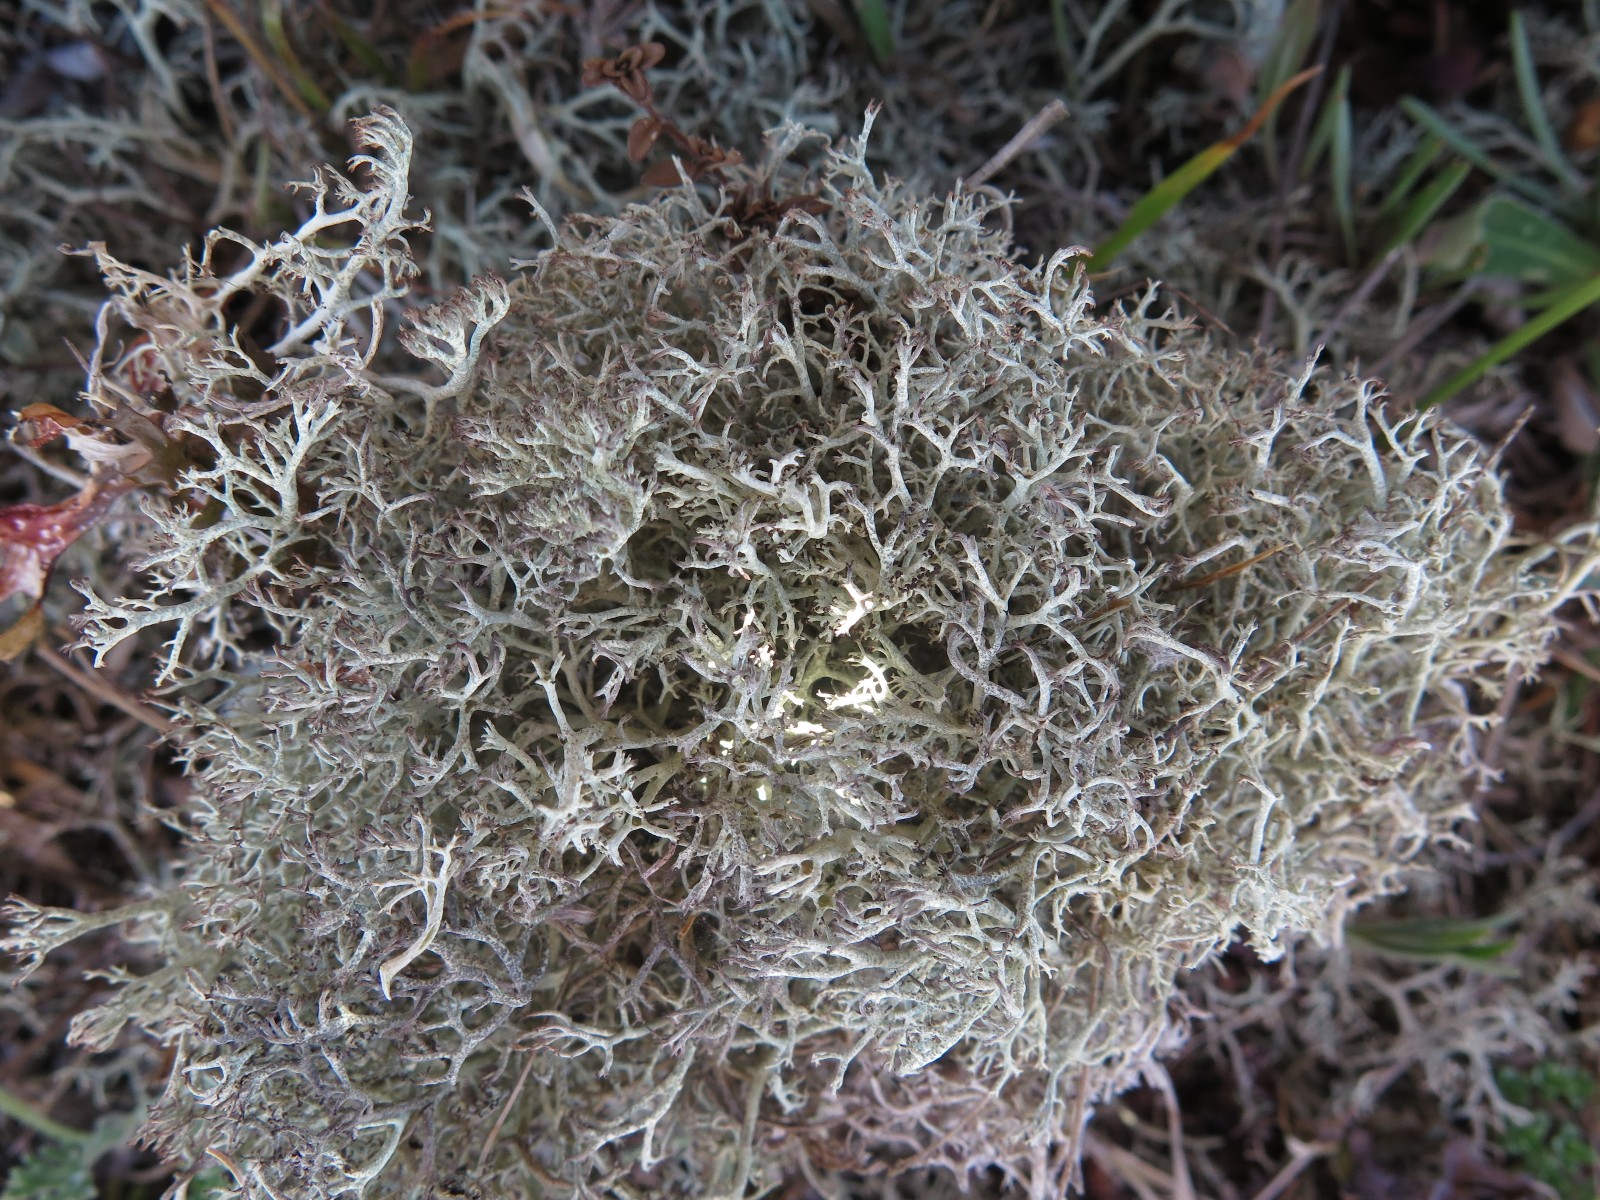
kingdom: Fungi
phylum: Ascomycota
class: Lecanoromycetes
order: Lecanorales
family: Cladoniaceae
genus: Cladonia
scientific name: Cladonia ciliata
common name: spinkel rensdyrlav
